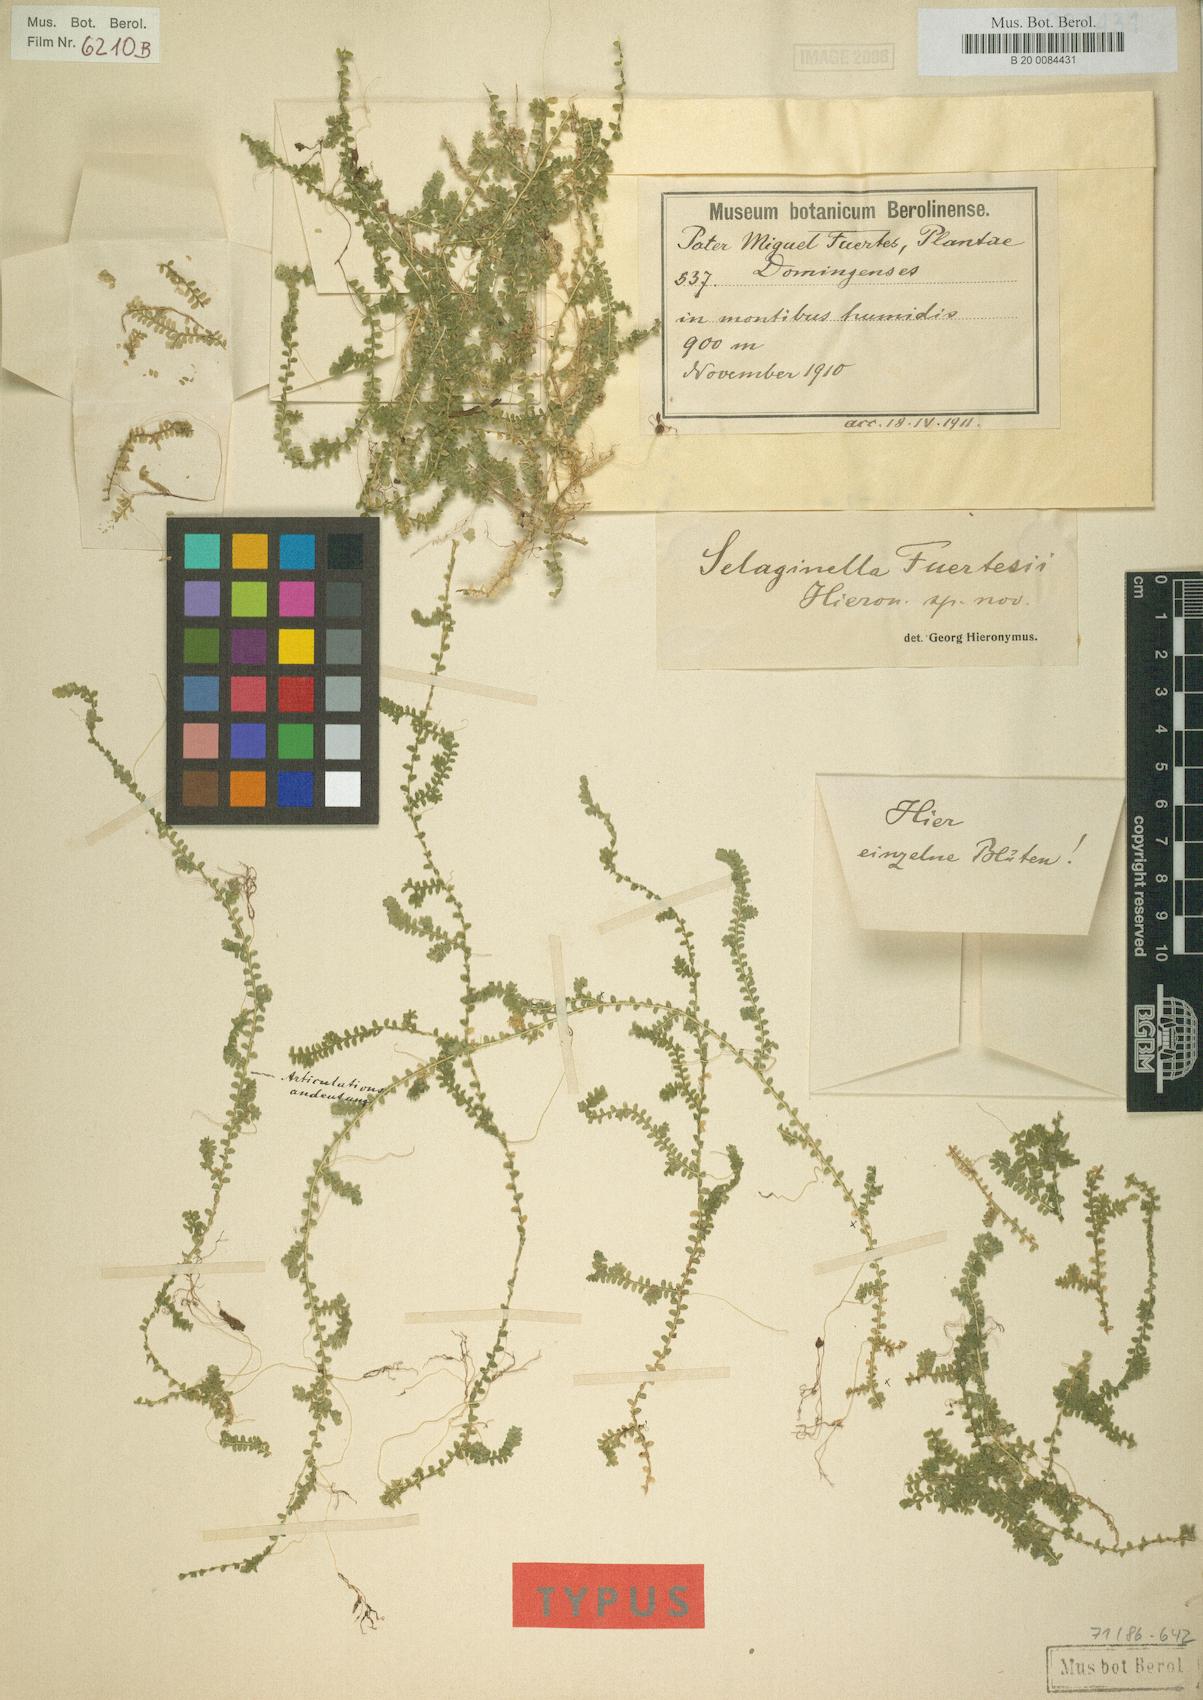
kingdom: Plantae
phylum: Tracheophyta
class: Lycopodiopsida
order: Selaginellales
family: Selaginellaceae
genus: Selaginella
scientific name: Selaginella fuertesii
